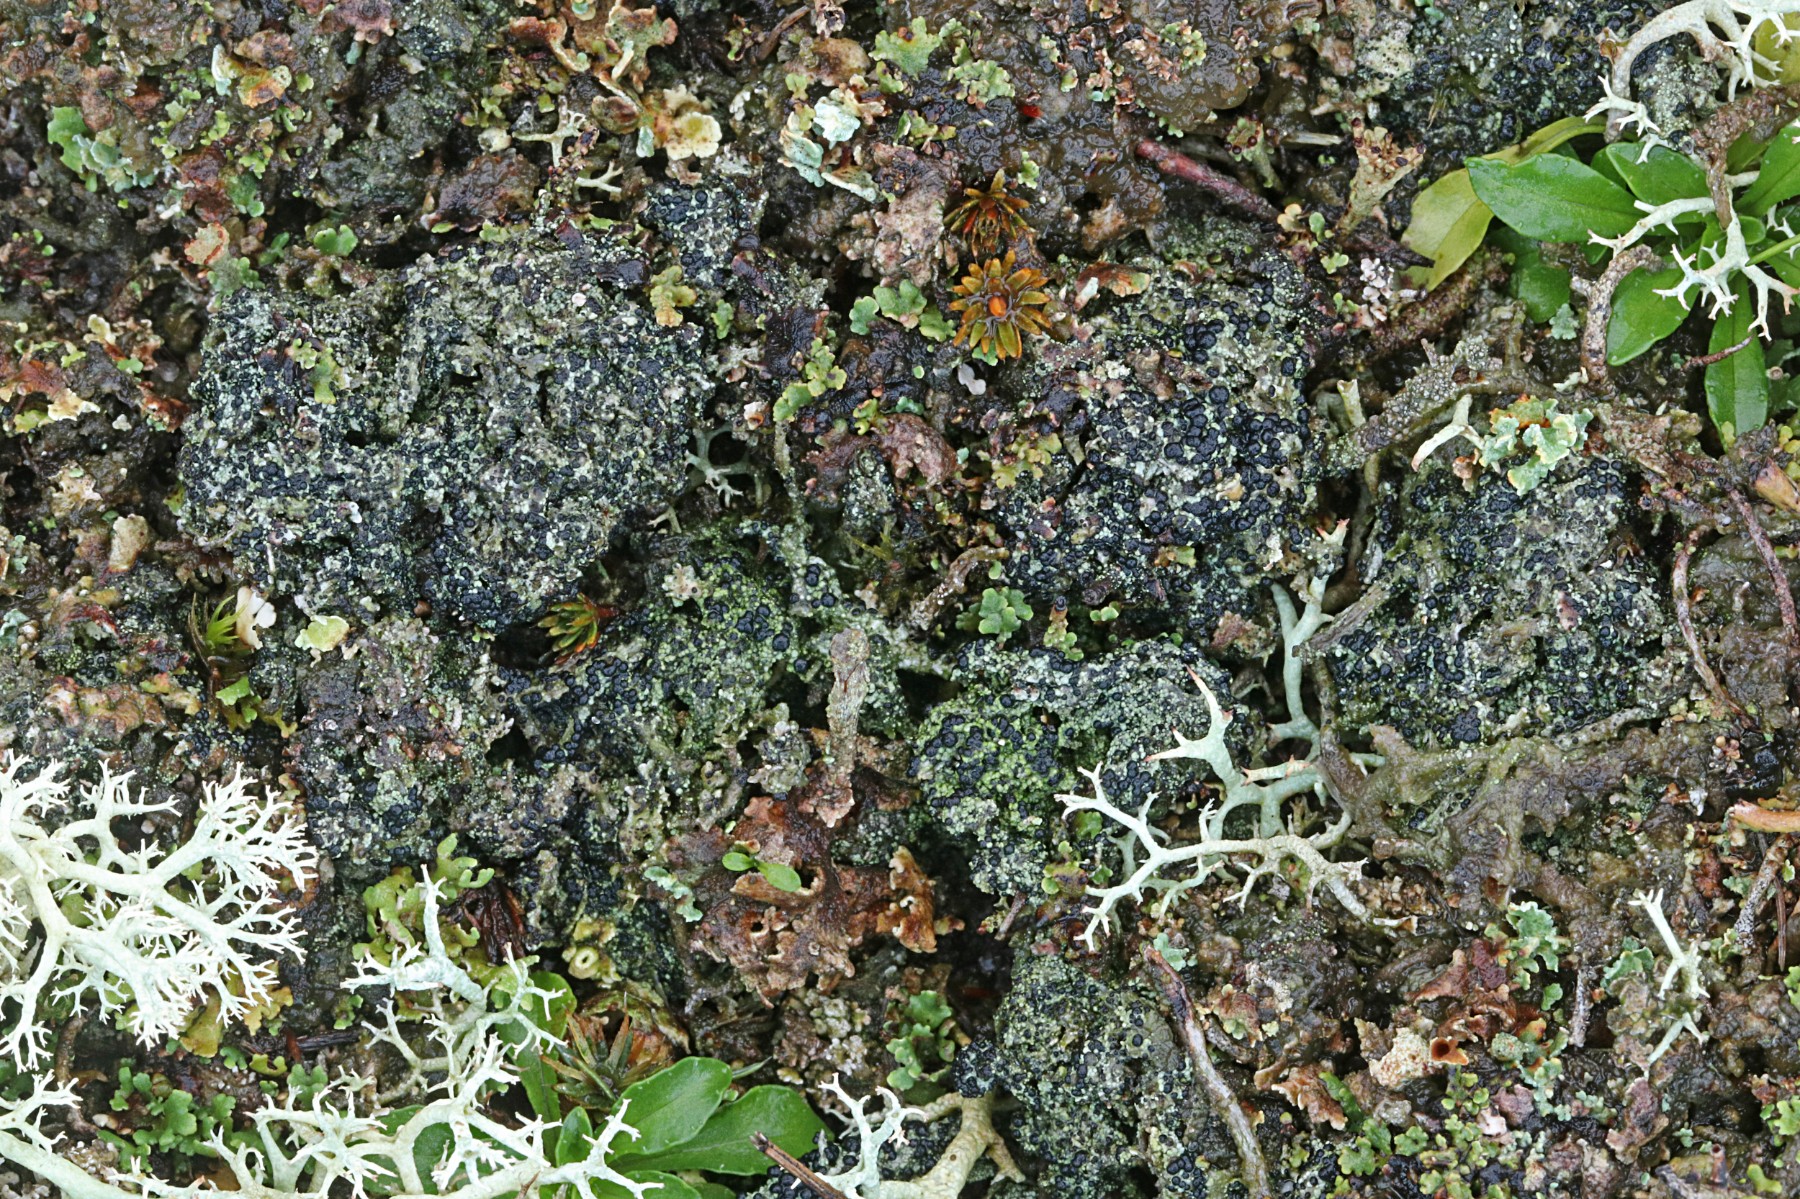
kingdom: Fungi
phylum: Ascomycota
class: Lecanoromycetes
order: Lecanorales
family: Byssolomataceae
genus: Micarea
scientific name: Micarea lignaria
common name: tørve-knaplav
